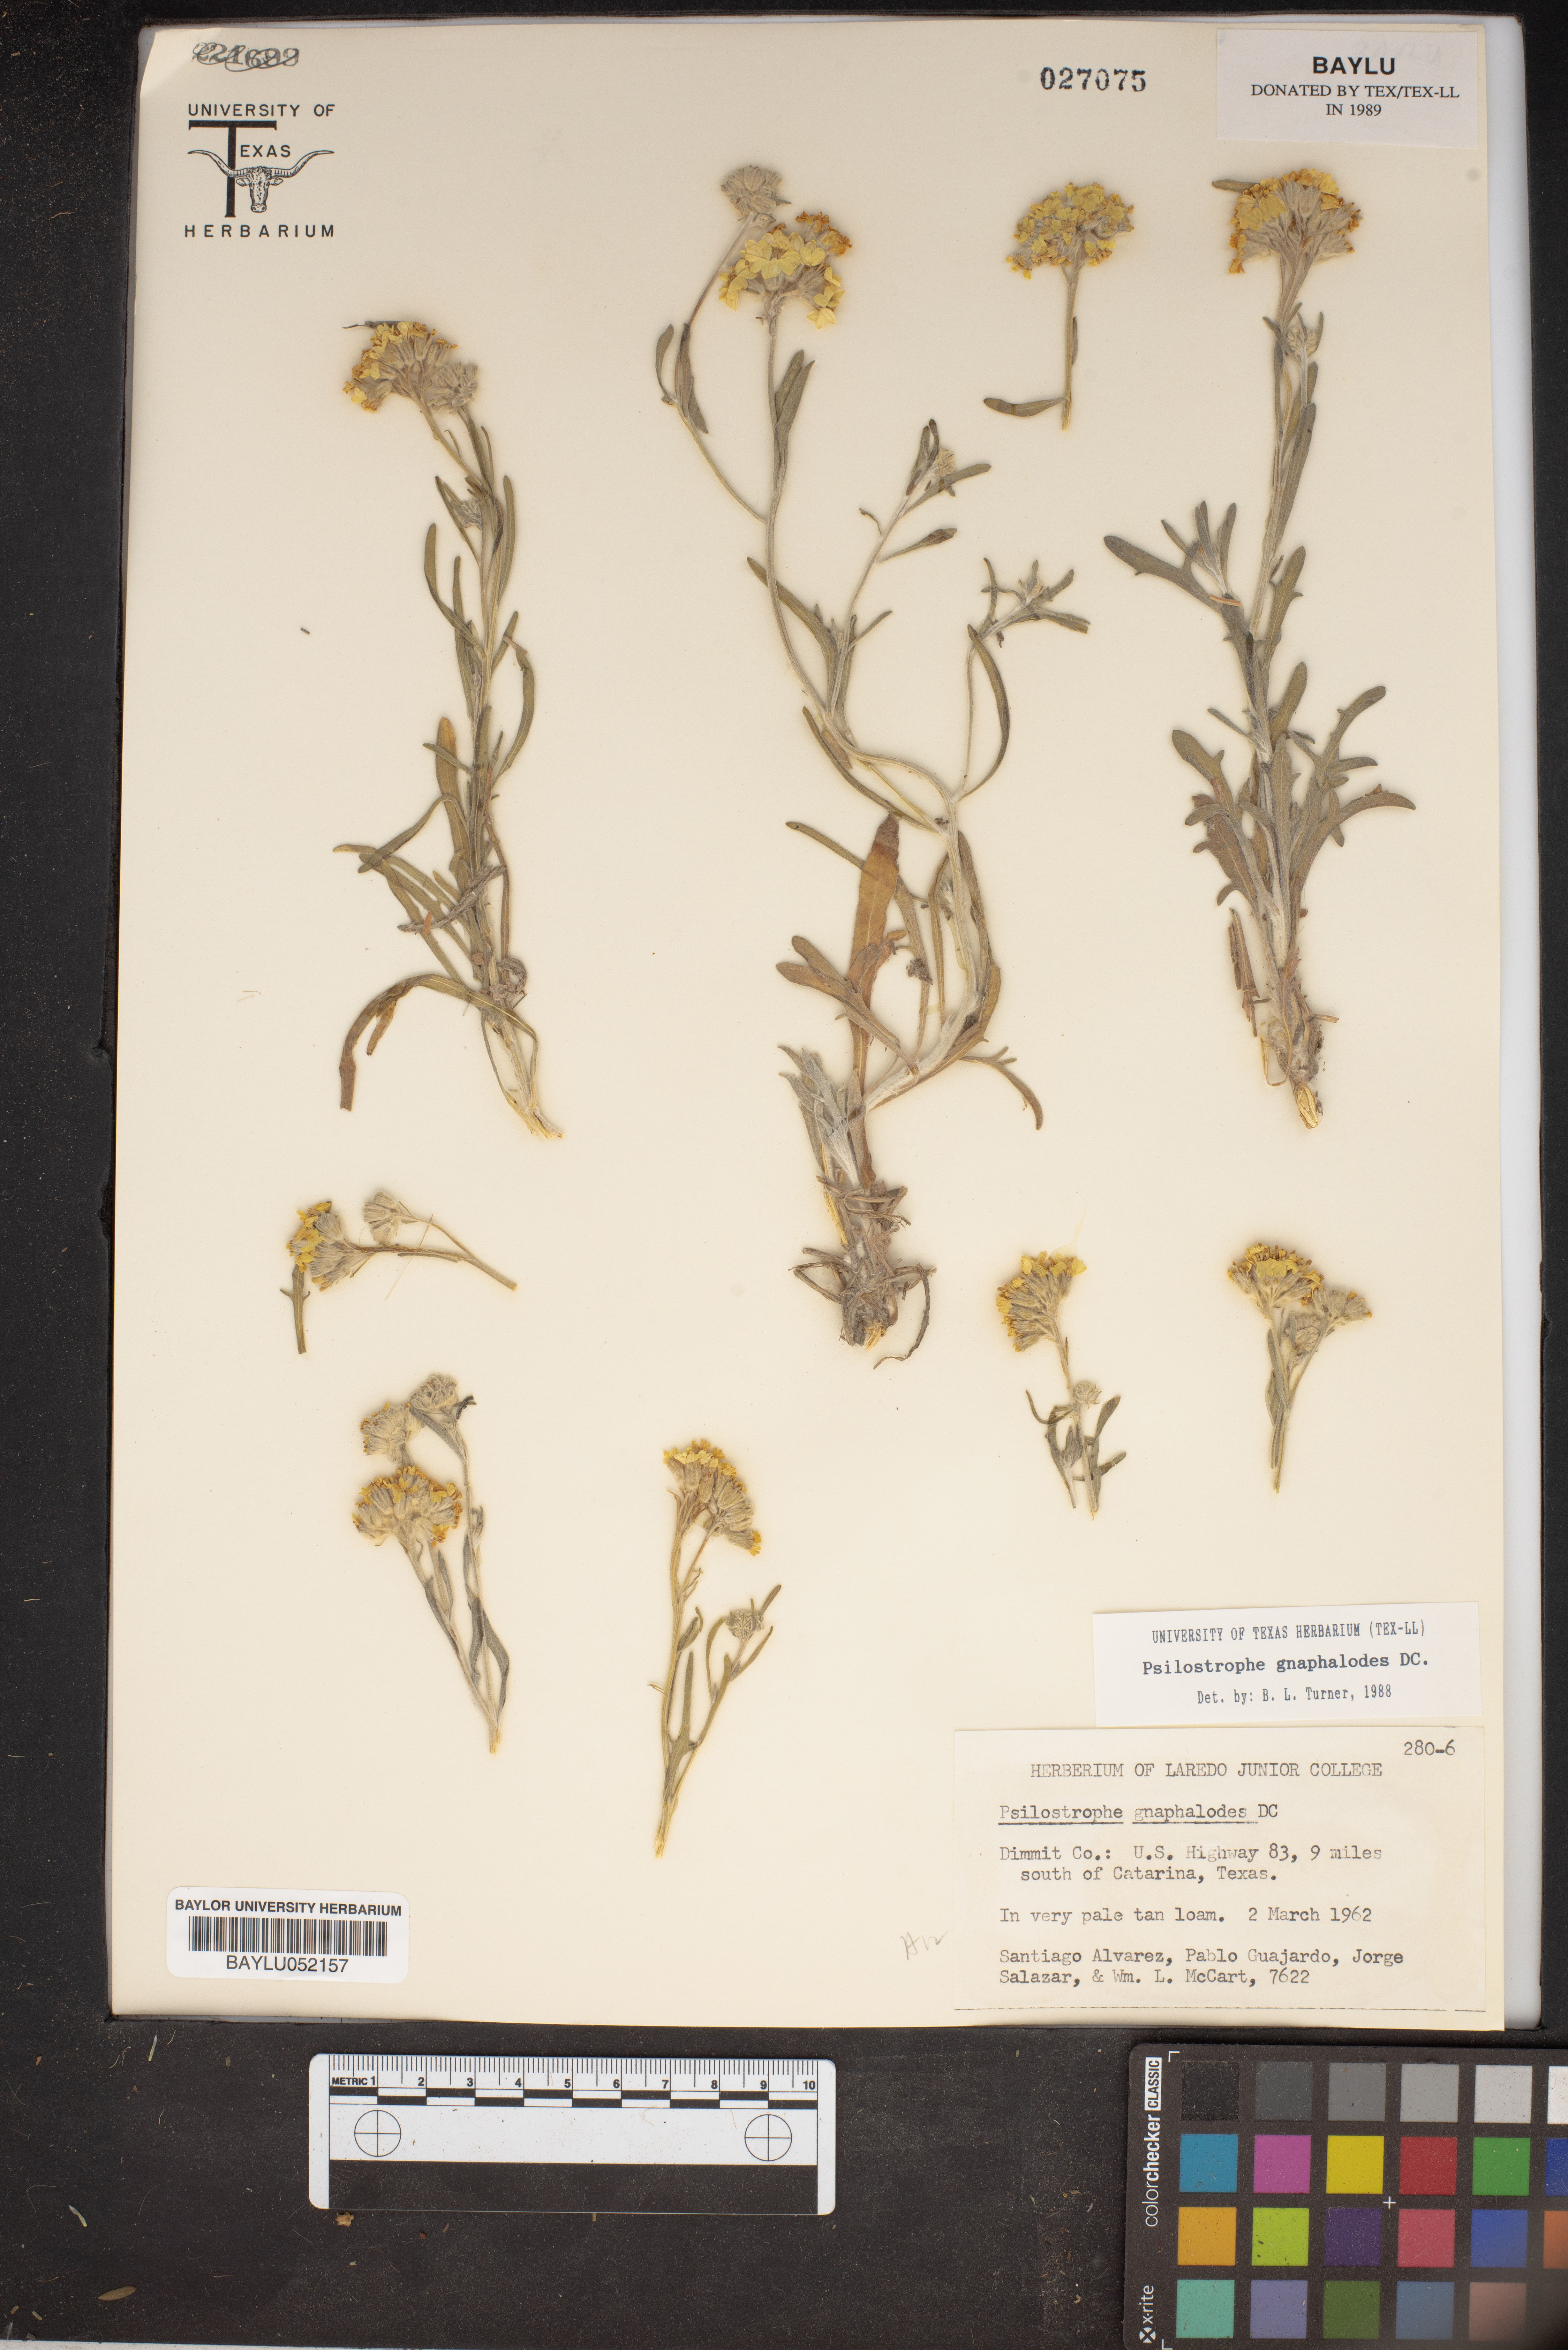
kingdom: Plantae
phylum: Tracheophyta
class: Magnoliopsida
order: Asterales
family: Asteraceae
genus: Psilostrophe
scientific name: Psilostrophe gnaphalioides
